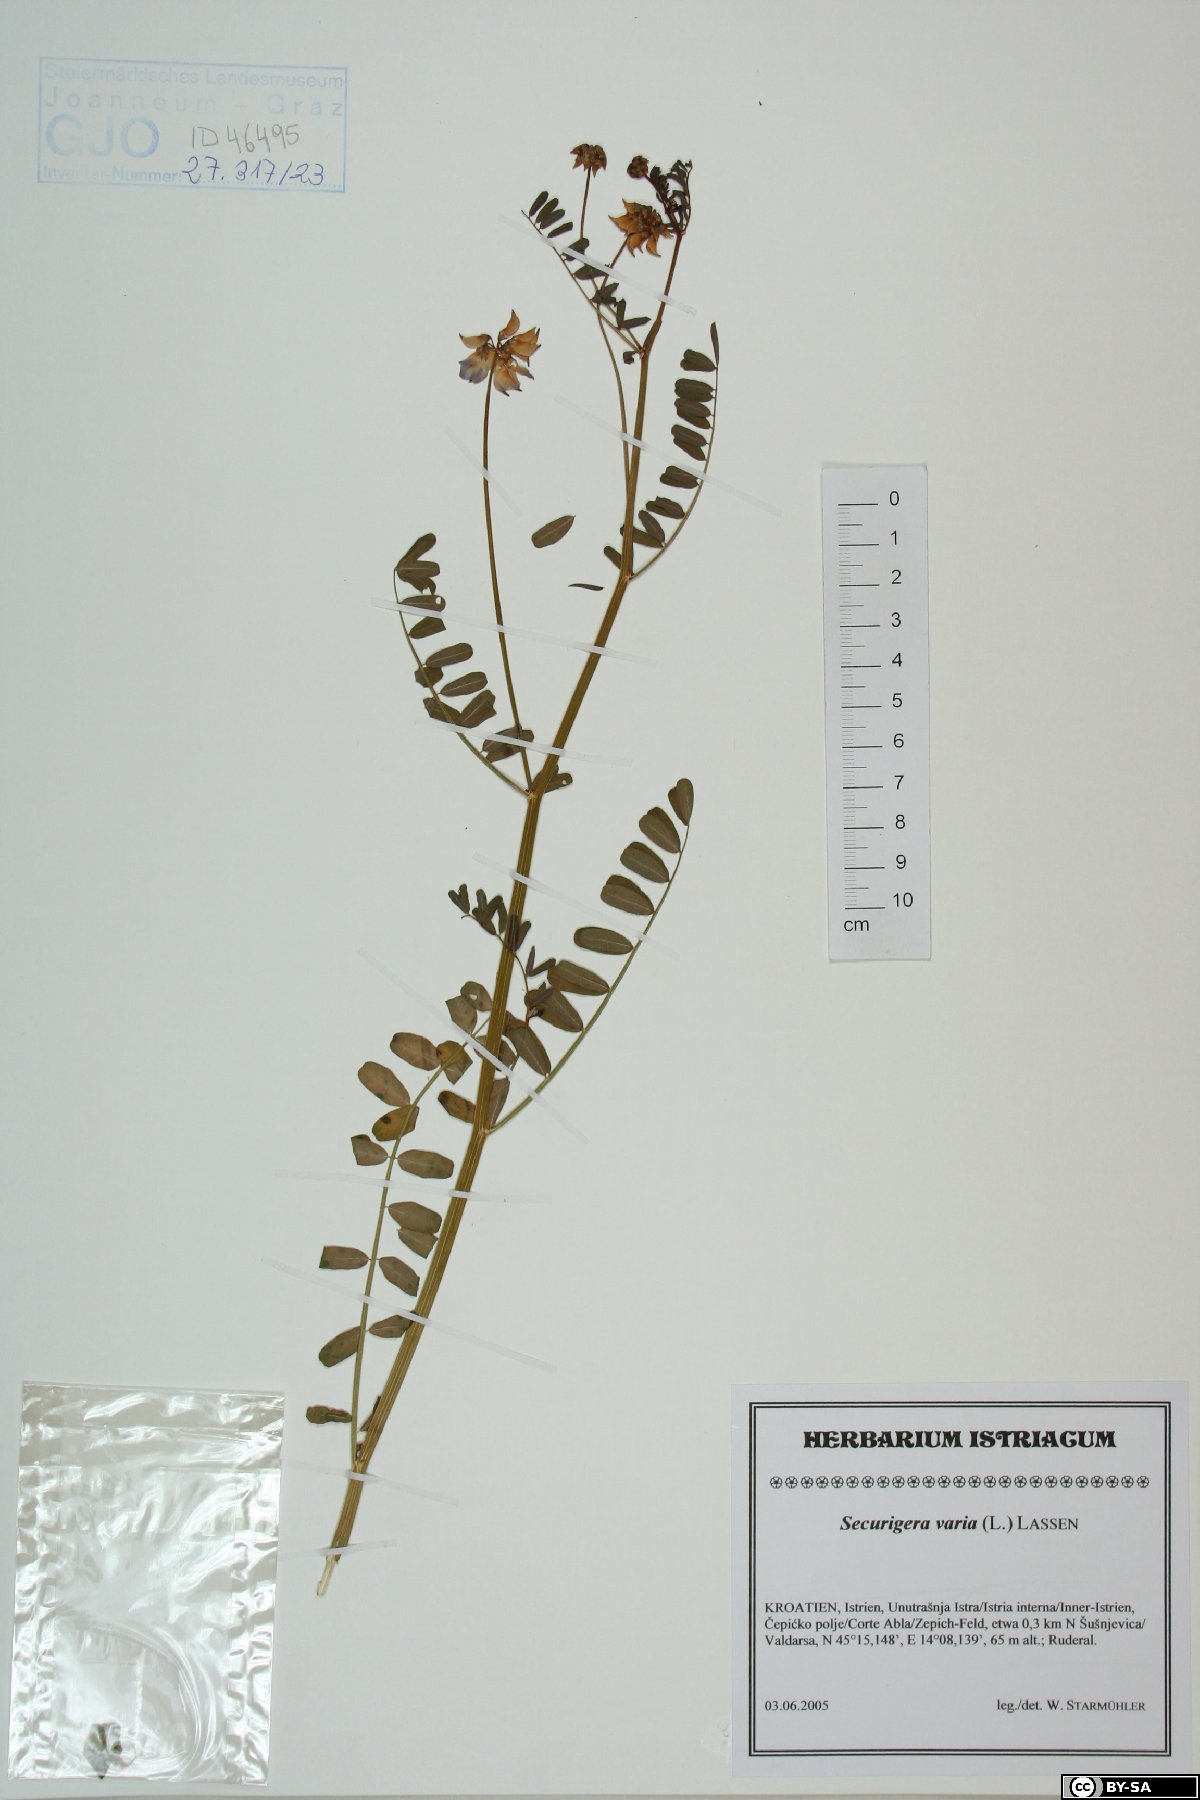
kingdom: Plantae
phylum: Tracheophyta
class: Magnoliopsida
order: Fabales
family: Fabaceae
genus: Coronilla
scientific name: Coronilla varia
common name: Crownvetch
